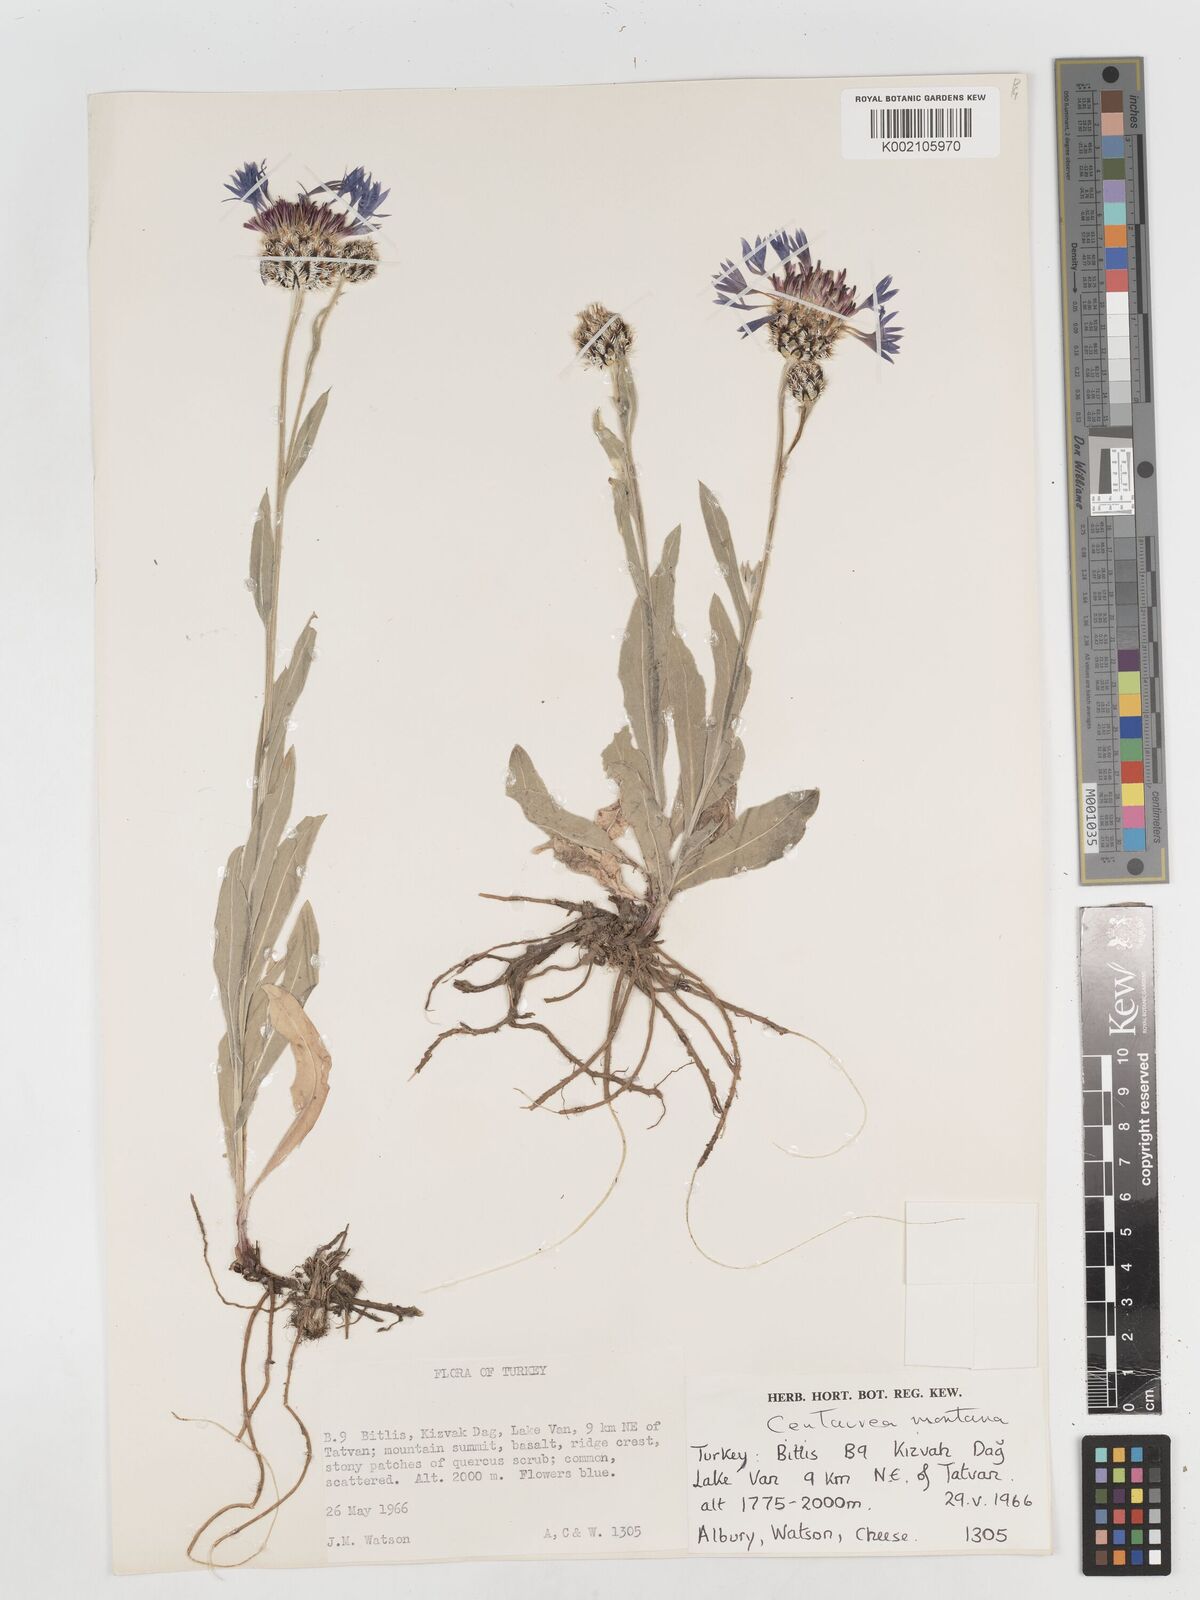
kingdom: Plantae
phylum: Tracheophyta
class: Magnoliopsida
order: Asterales
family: Asteraceae
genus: Centaurea
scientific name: Centaurea
